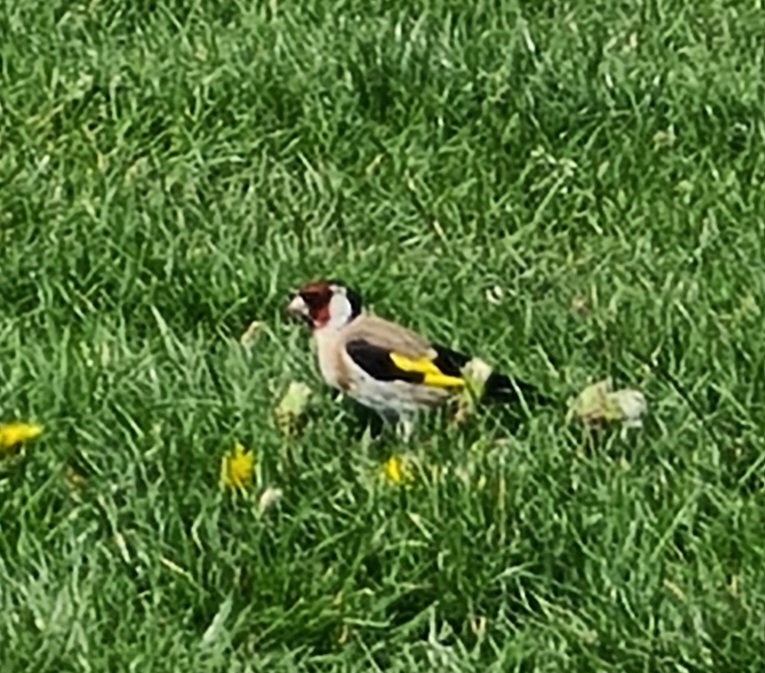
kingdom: Animalia
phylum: Chordata
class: Aves
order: Passeriformes
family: Fringillidae
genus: Carduelis
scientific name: Carduelis carduelis
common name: Stillits
